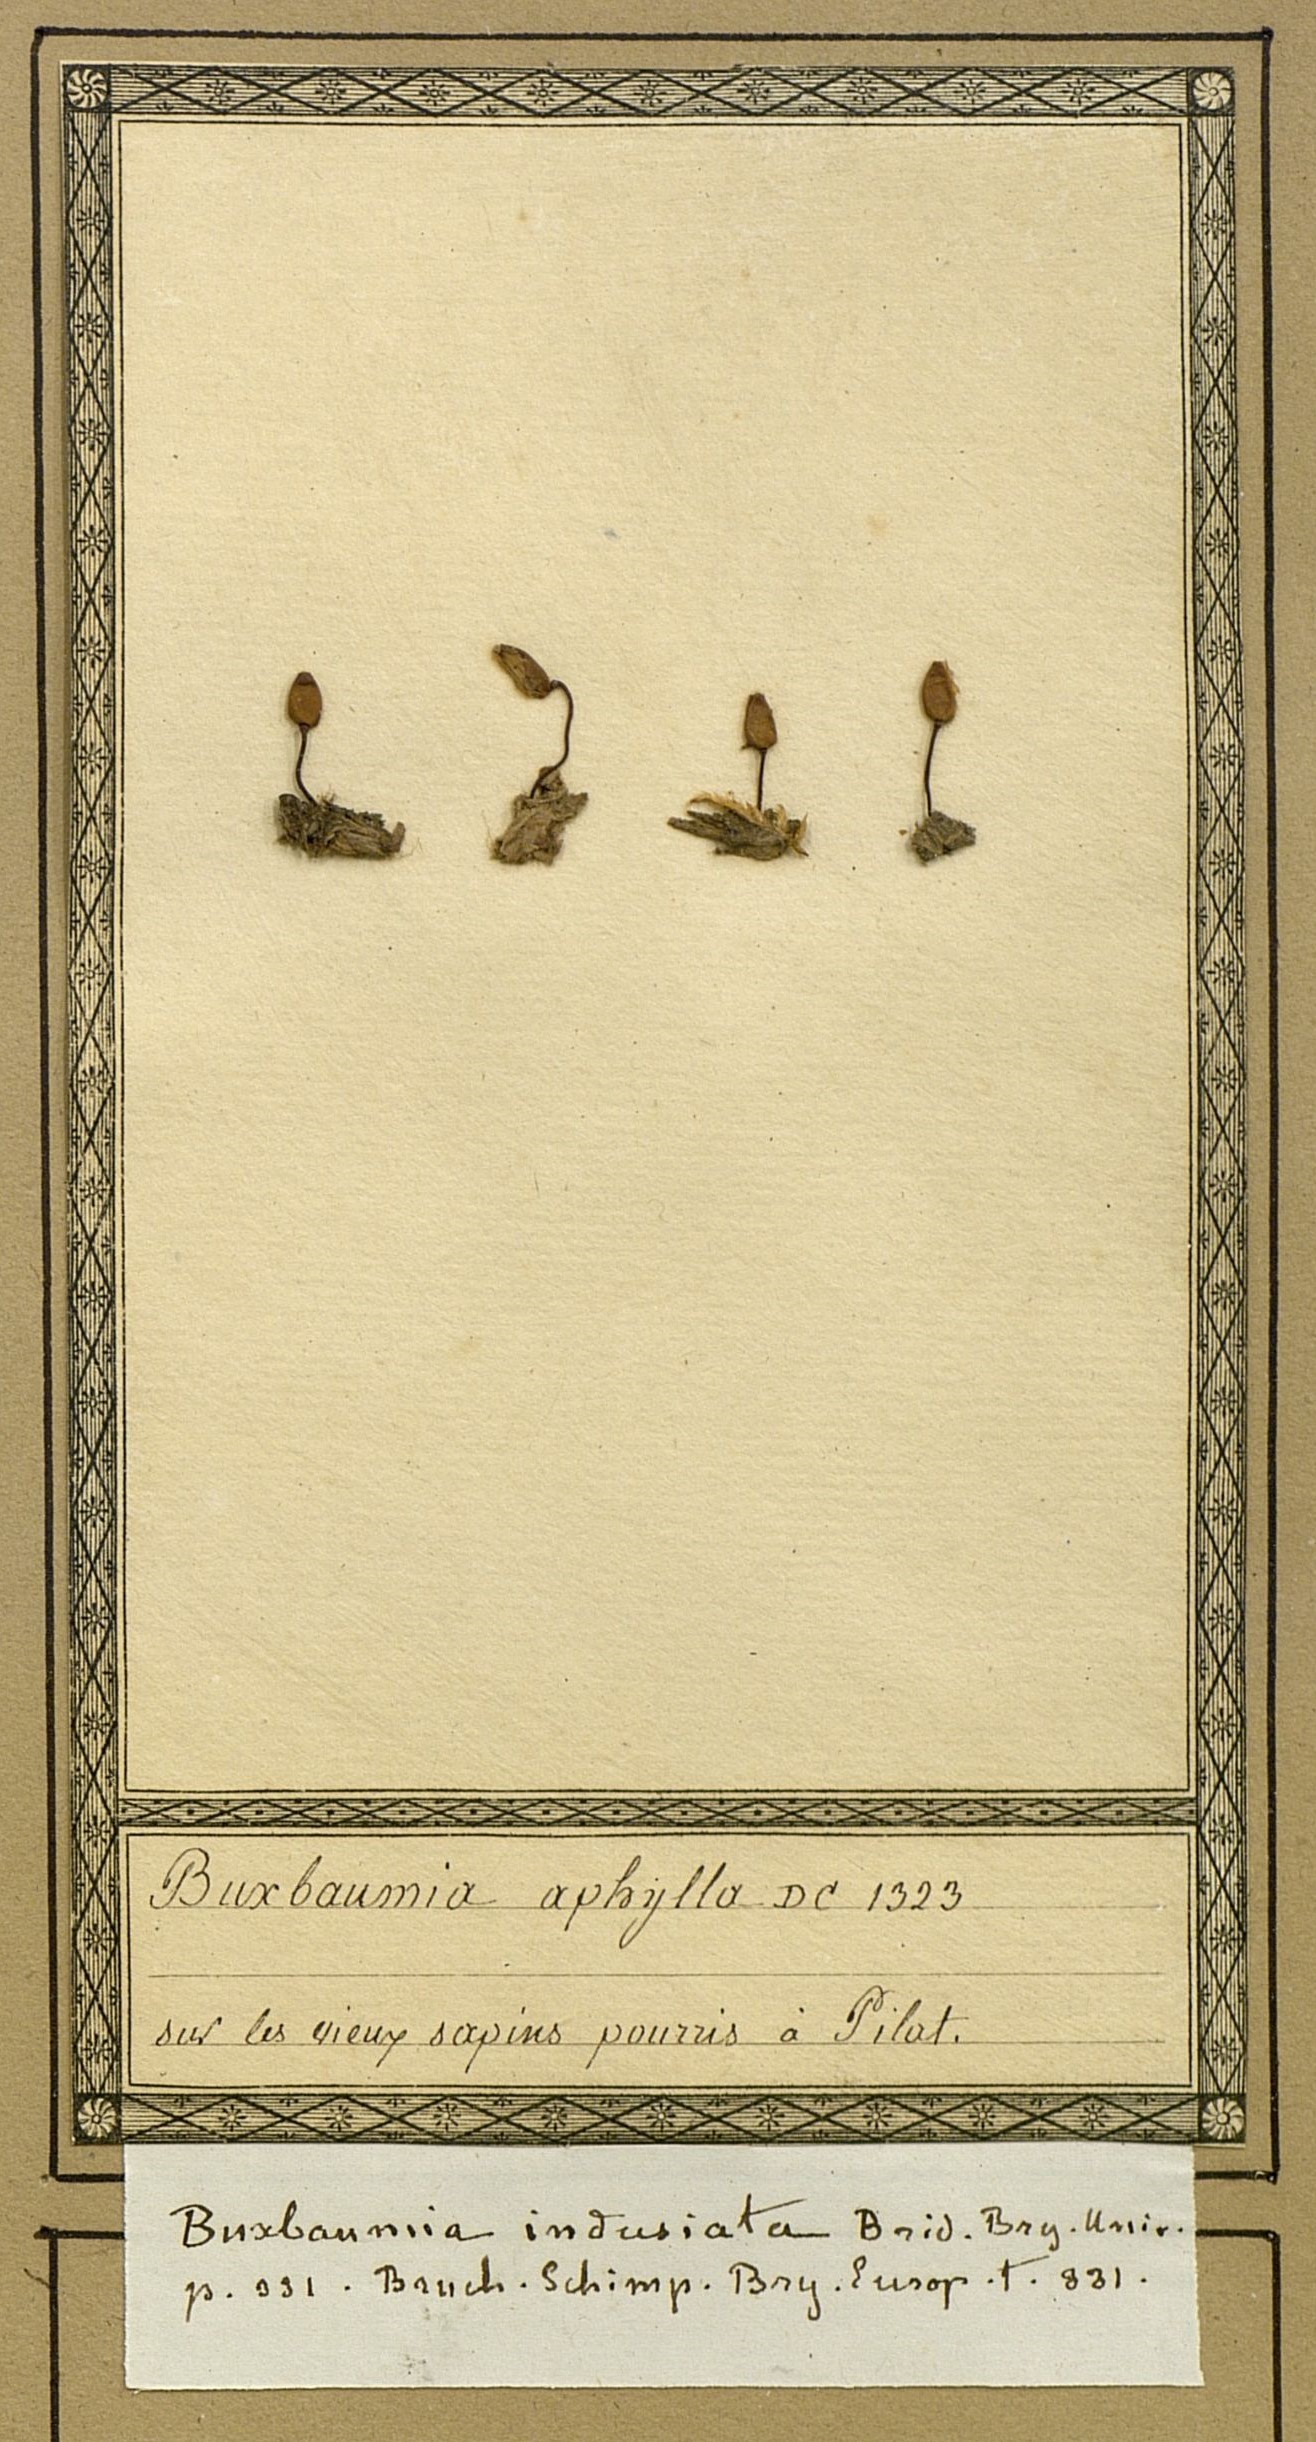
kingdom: Plantae
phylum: Bryophyta
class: Bryopsida
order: Buxbaumiales
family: Buxbaumiaceae
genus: Buxbaumia
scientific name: Buxbaumia aphylla
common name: Brown shield-moss
